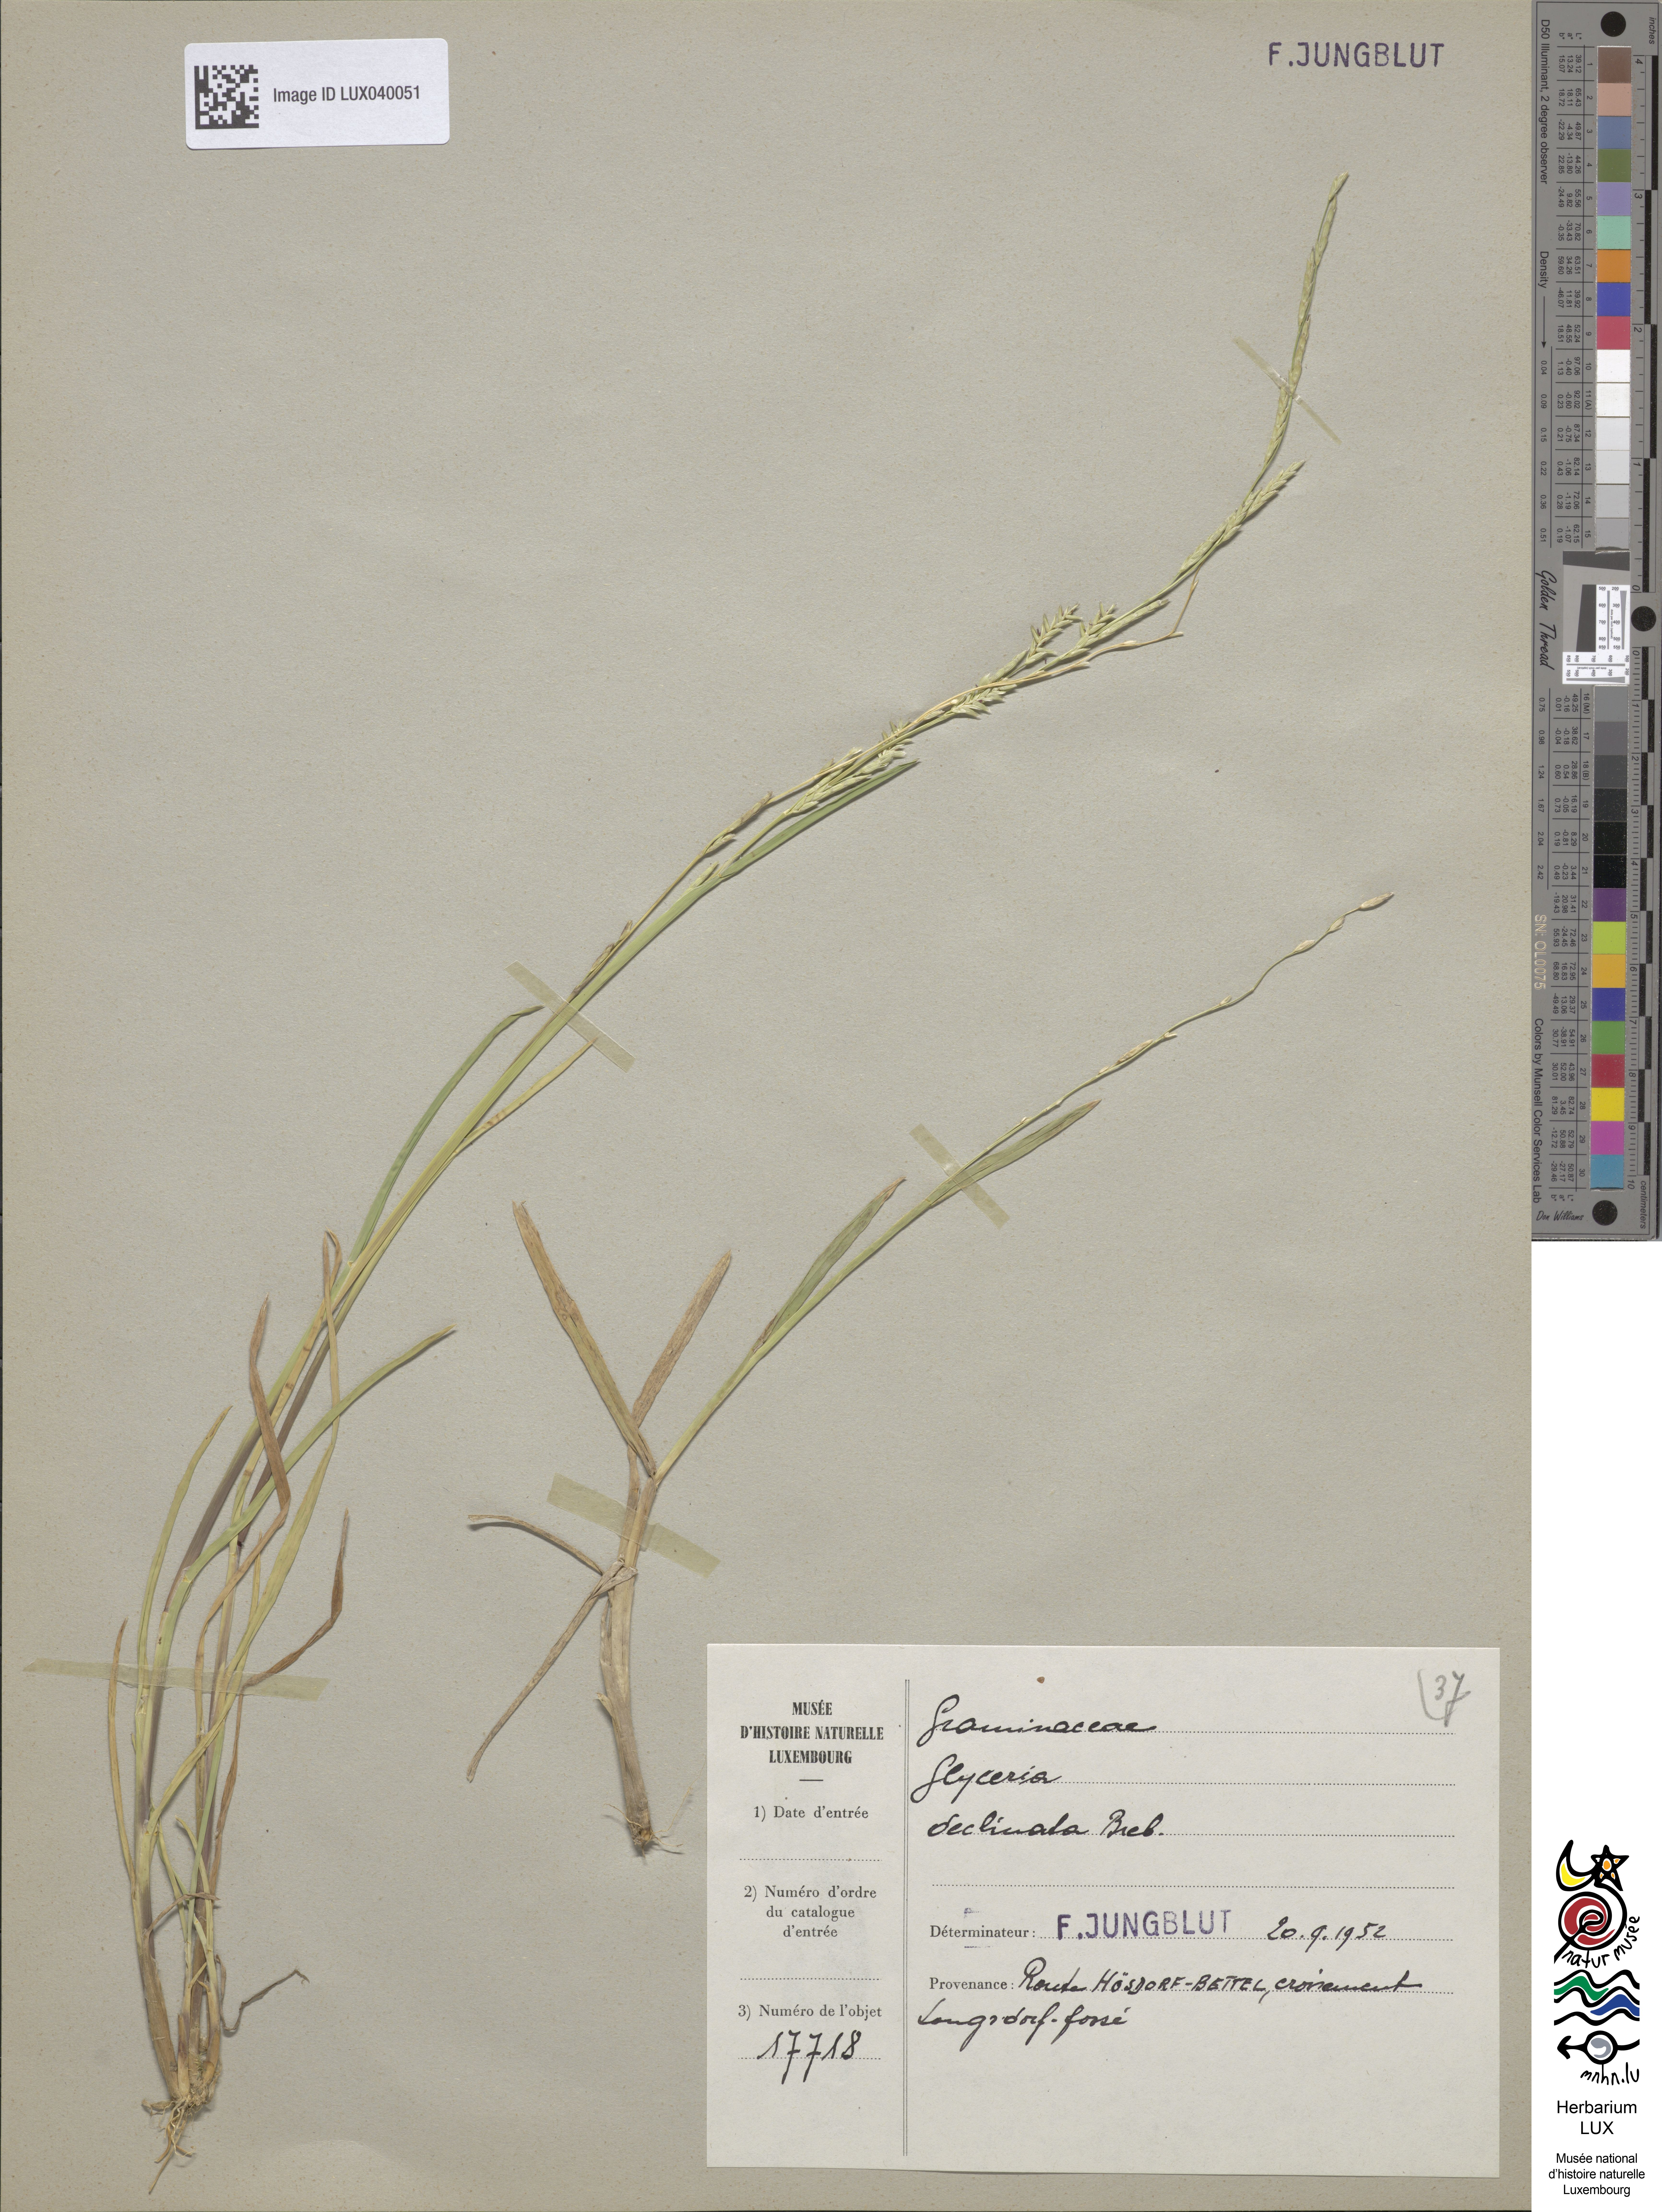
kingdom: Plantae
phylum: Tracheophyta
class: Liliopsida
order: Poales
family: Poaceae
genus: Glyceria
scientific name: Glyceria declinata
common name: Small sweet-grass
